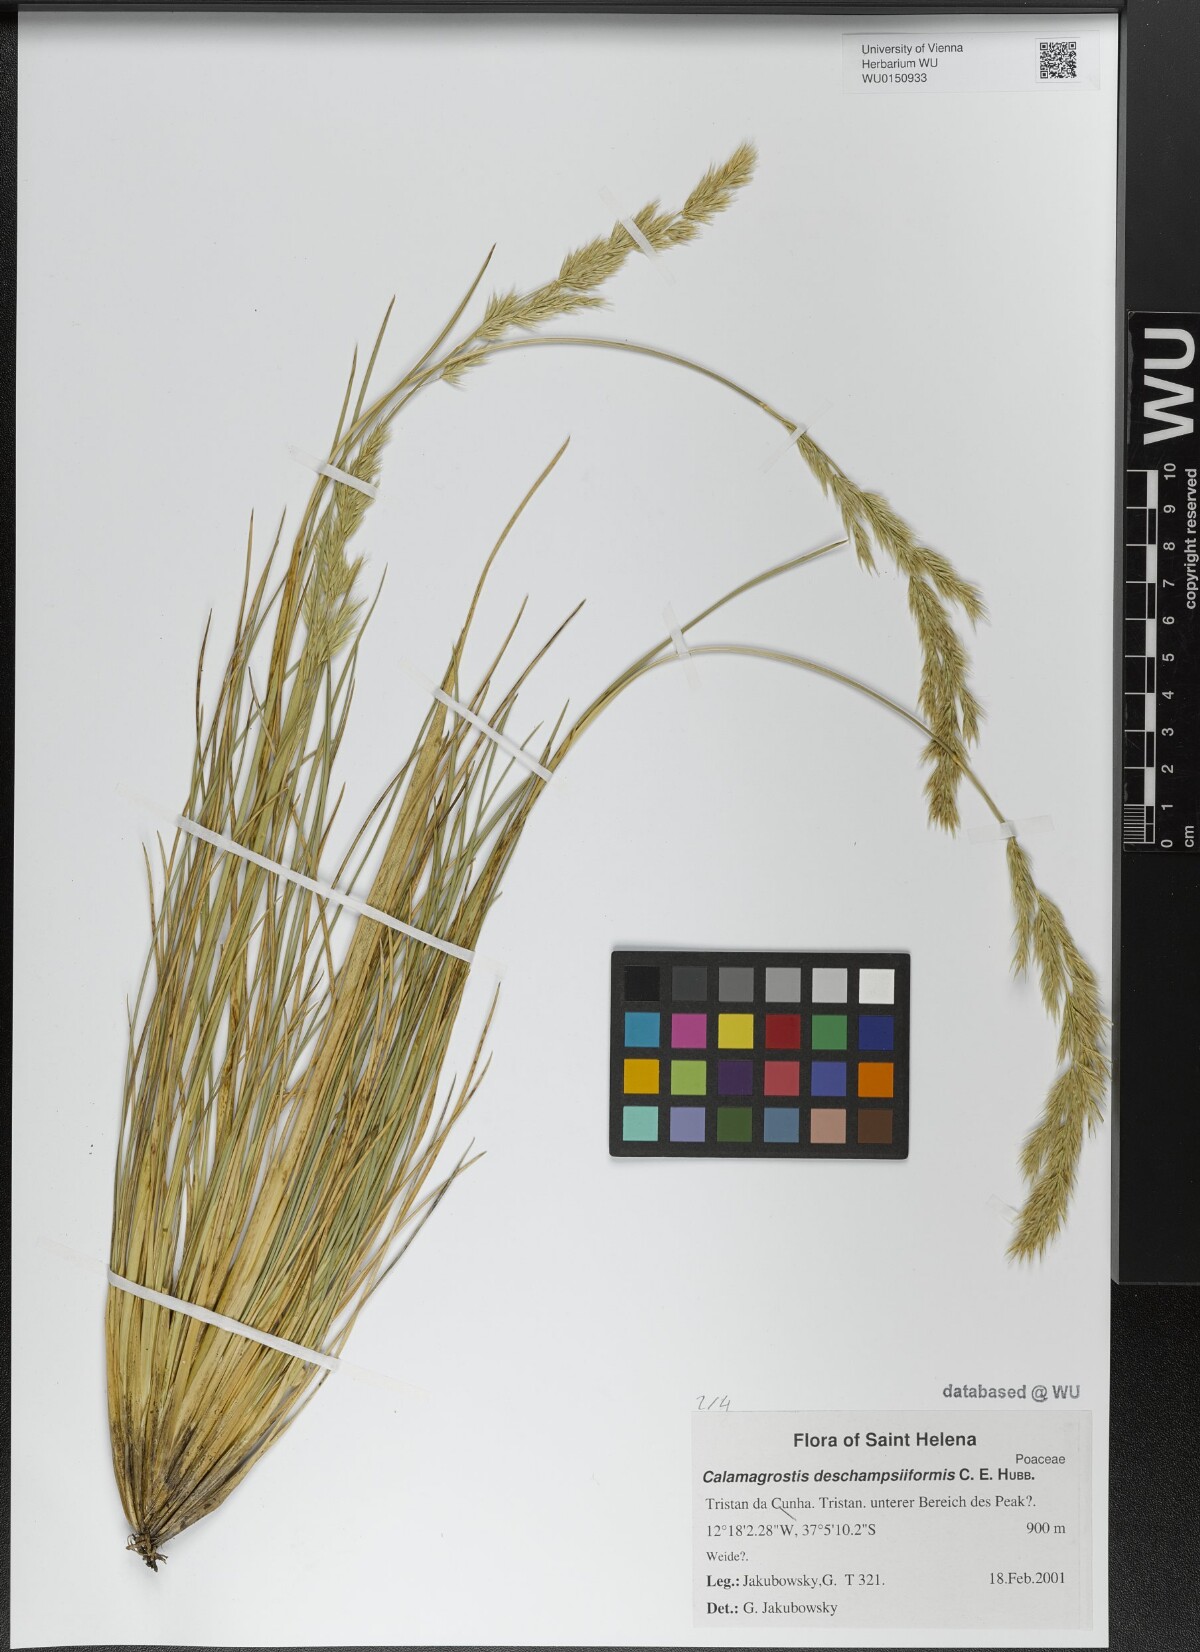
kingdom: Plantae
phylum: Tracheophyta
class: Liliopsida
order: Poales
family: Poaceae
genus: Calamagrostis
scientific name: Calamagrostis deschampsiiformis
